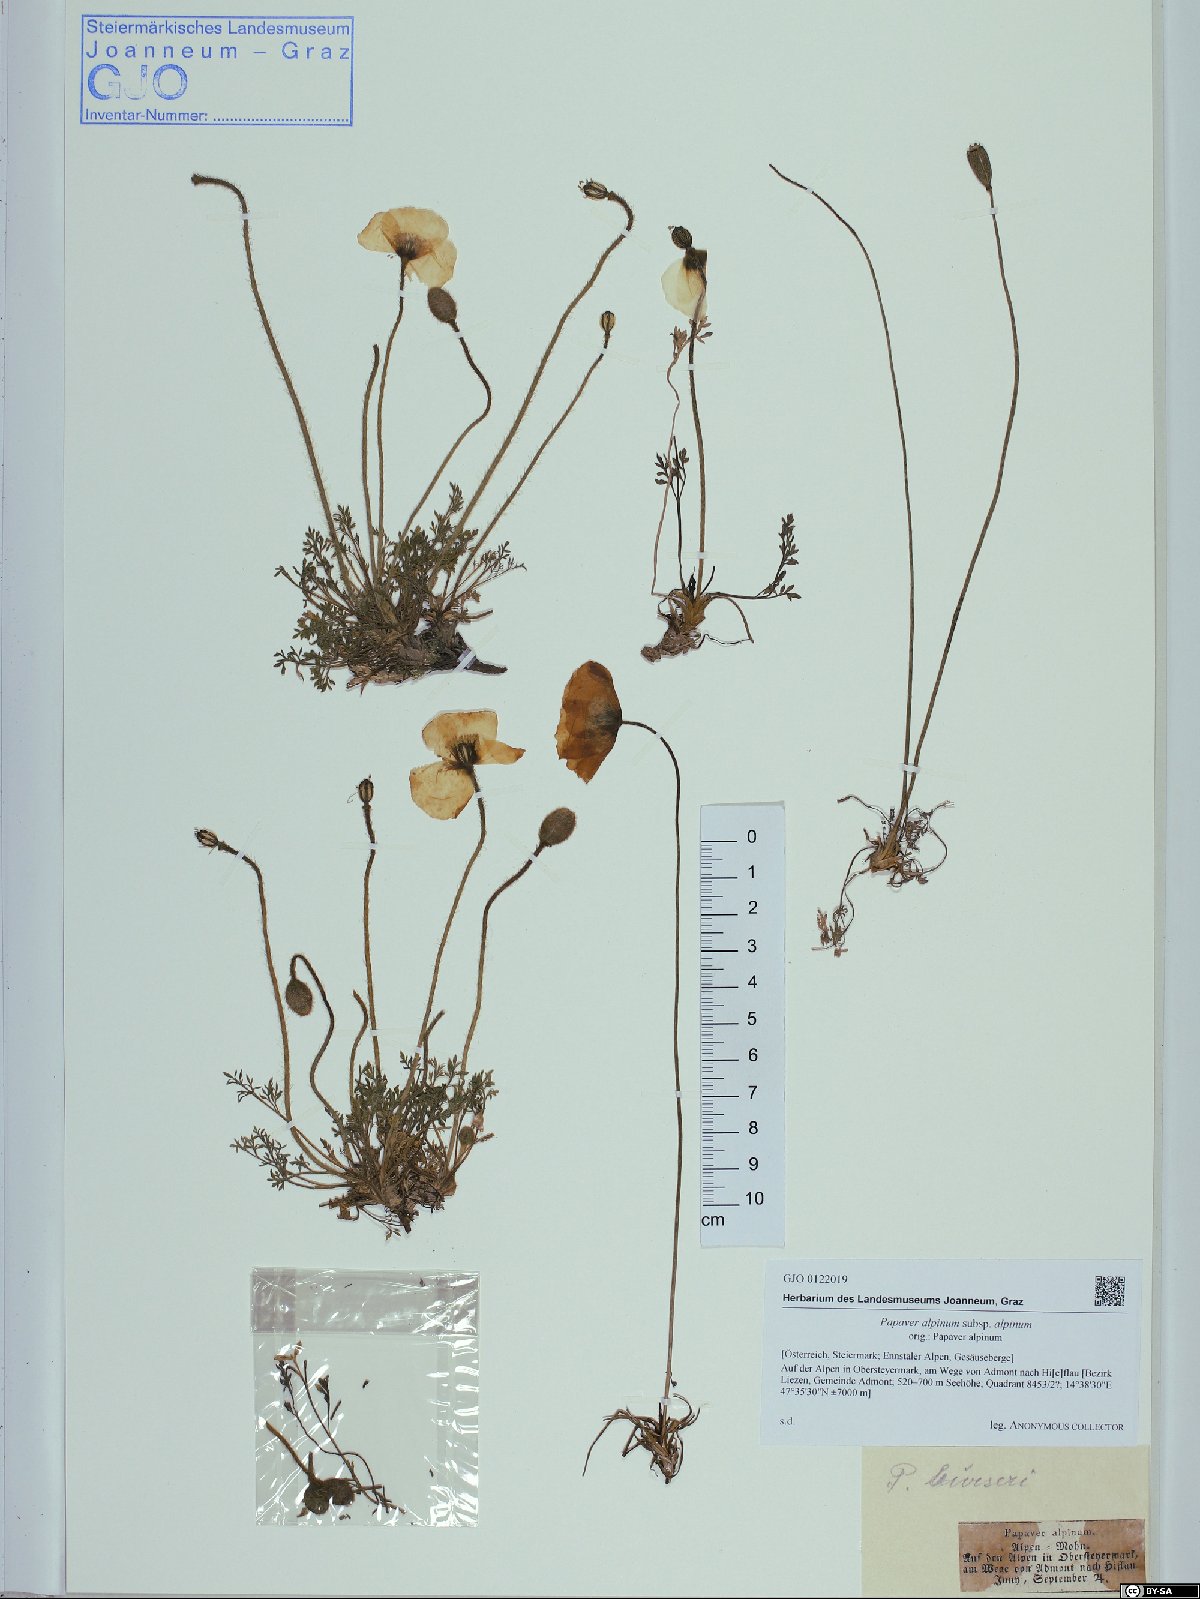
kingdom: Plantae
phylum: Tracheophyta
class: Magnoliopsida
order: Ranunculales
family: Papaveraceae
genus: Papaver
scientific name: Papaver alpinum
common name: Austrian poppy
